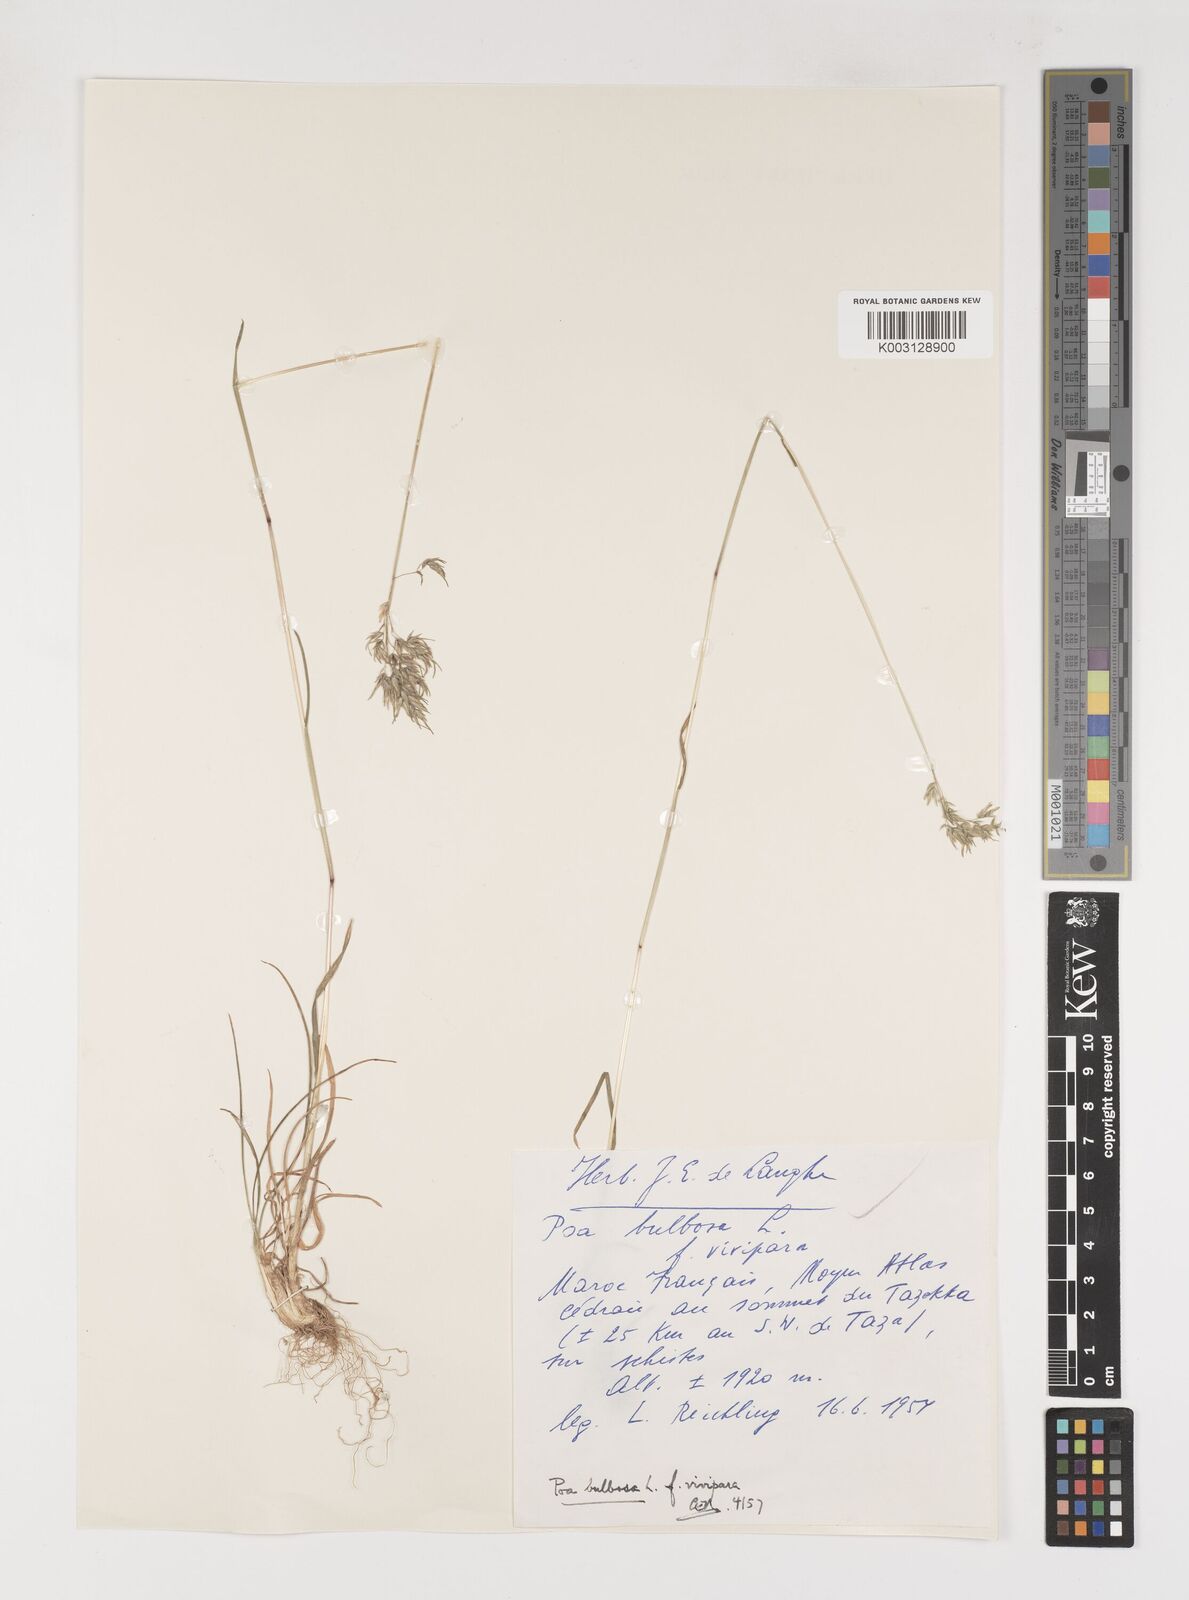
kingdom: Plantae
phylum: Tracheophyta
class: Liliopsida
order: Poales
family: Poaceae
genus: Poa
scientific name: Poa bulbosa
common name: Bulbous bluegrass
